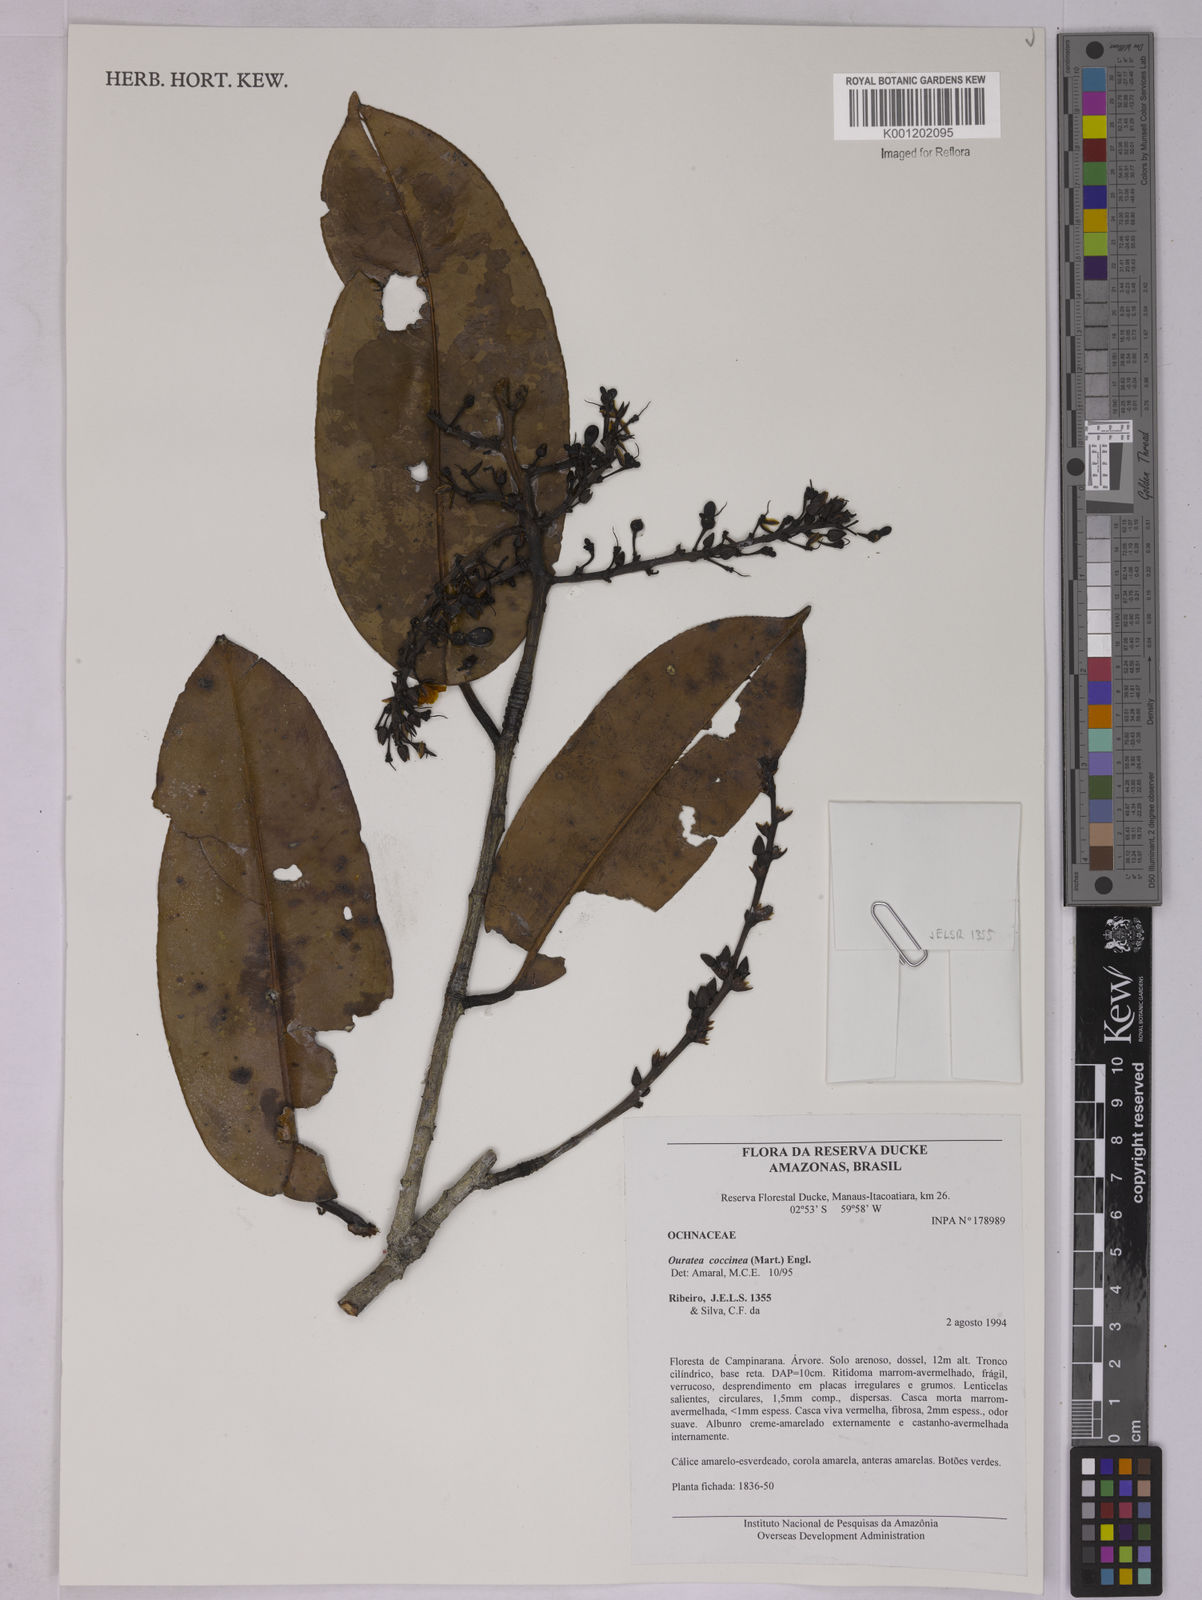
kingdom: Plantae
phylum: Tracheophyta
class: Magnoliopsida
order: Malpighiales
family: Ochnaceae
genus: Ouratea
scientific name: Ouratea coccinea
